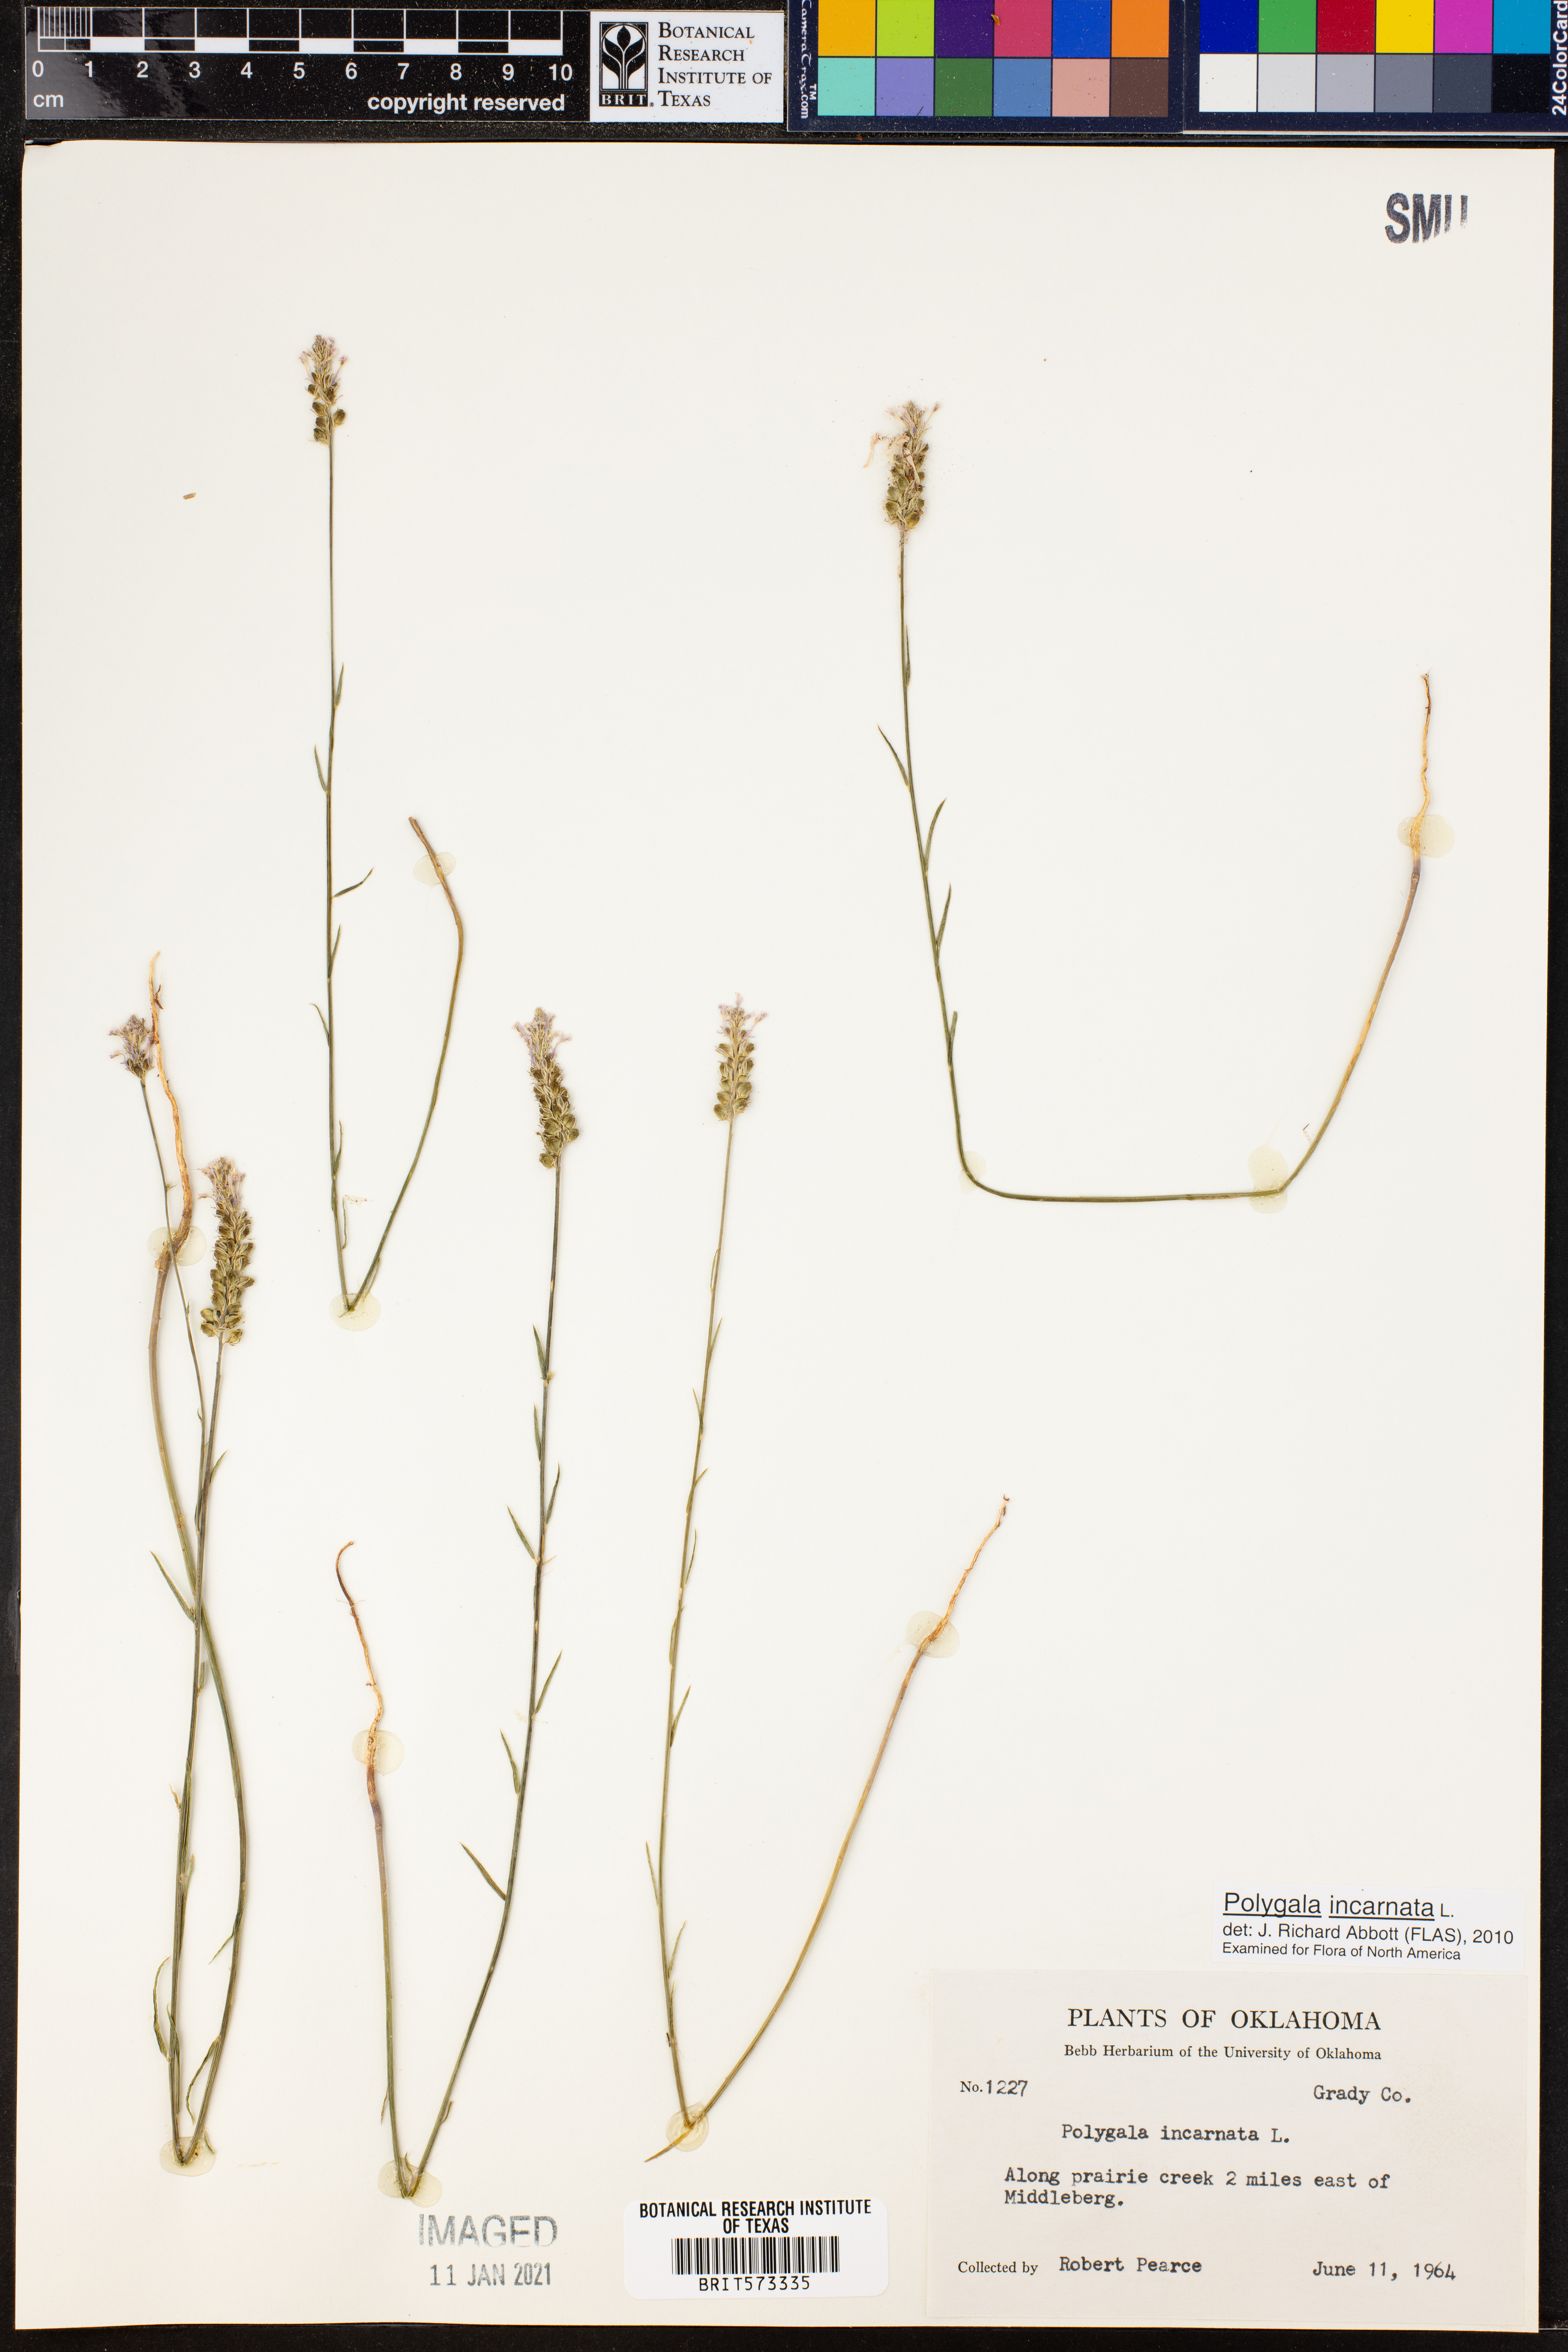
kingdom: Plantae
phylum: Tracheophyta
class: Magnoliopsida
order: Fabales
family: Polygalaceae
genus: Polygala
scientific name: Polygala incarnata
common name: Pink milkwort
